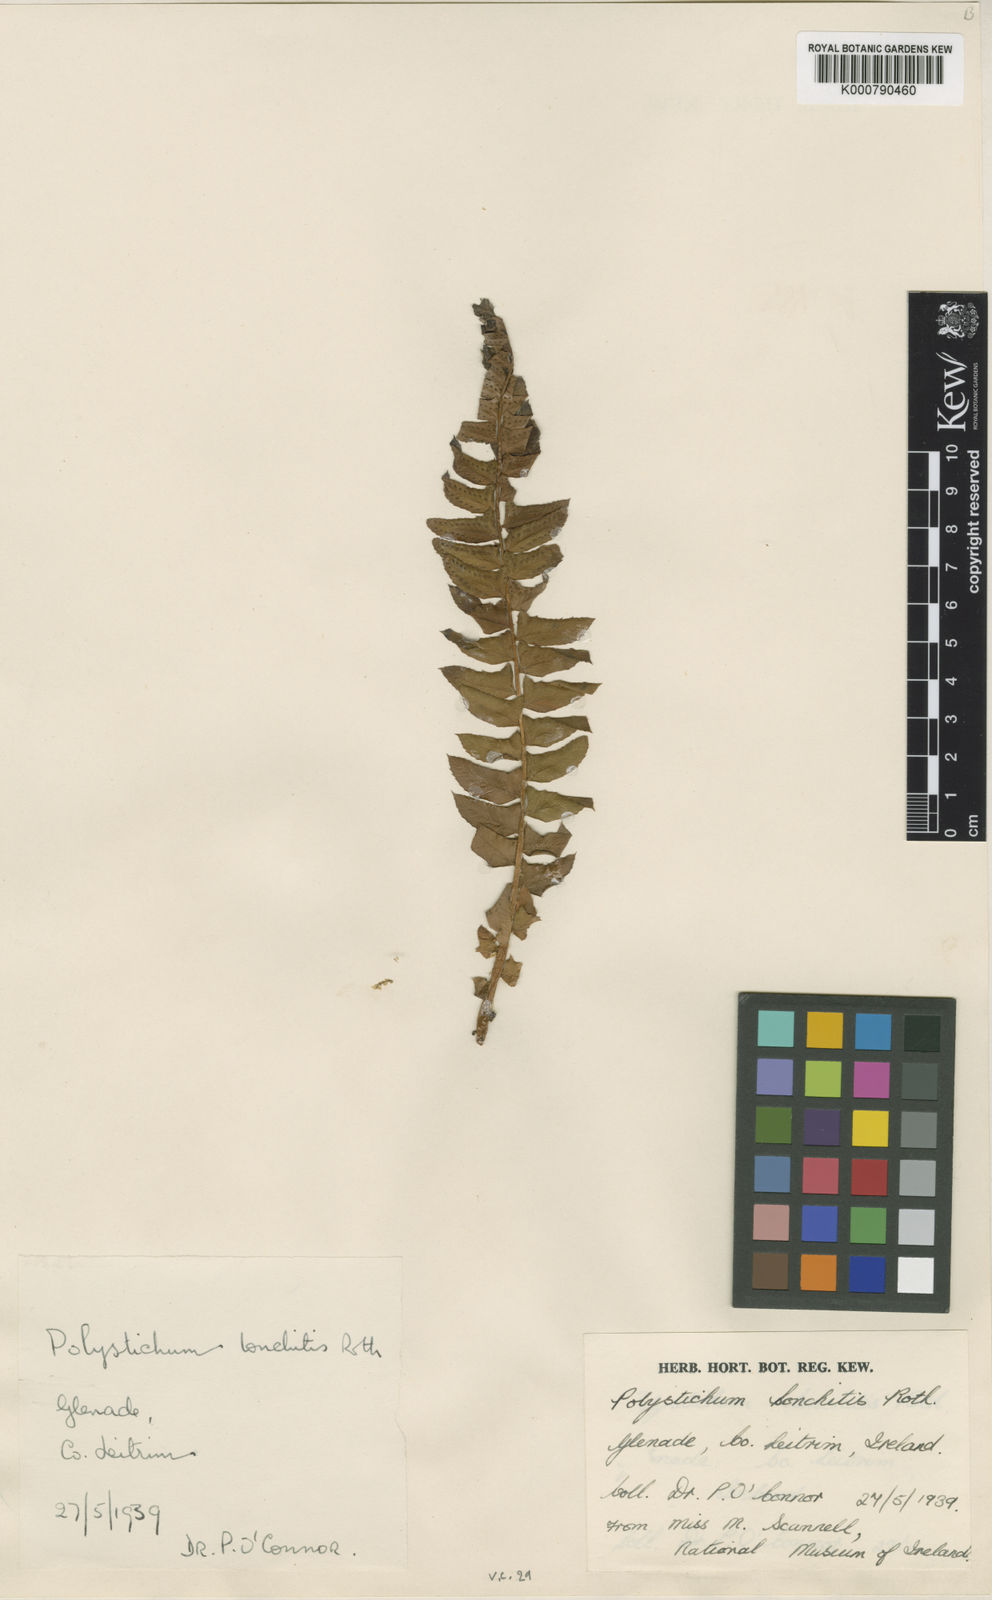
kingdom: Plantae
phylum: Tracheophyta
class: Polypodiopsida
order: Polypodiales
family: Dryopteridaceae
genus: Polystichum
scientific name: Polystichum
